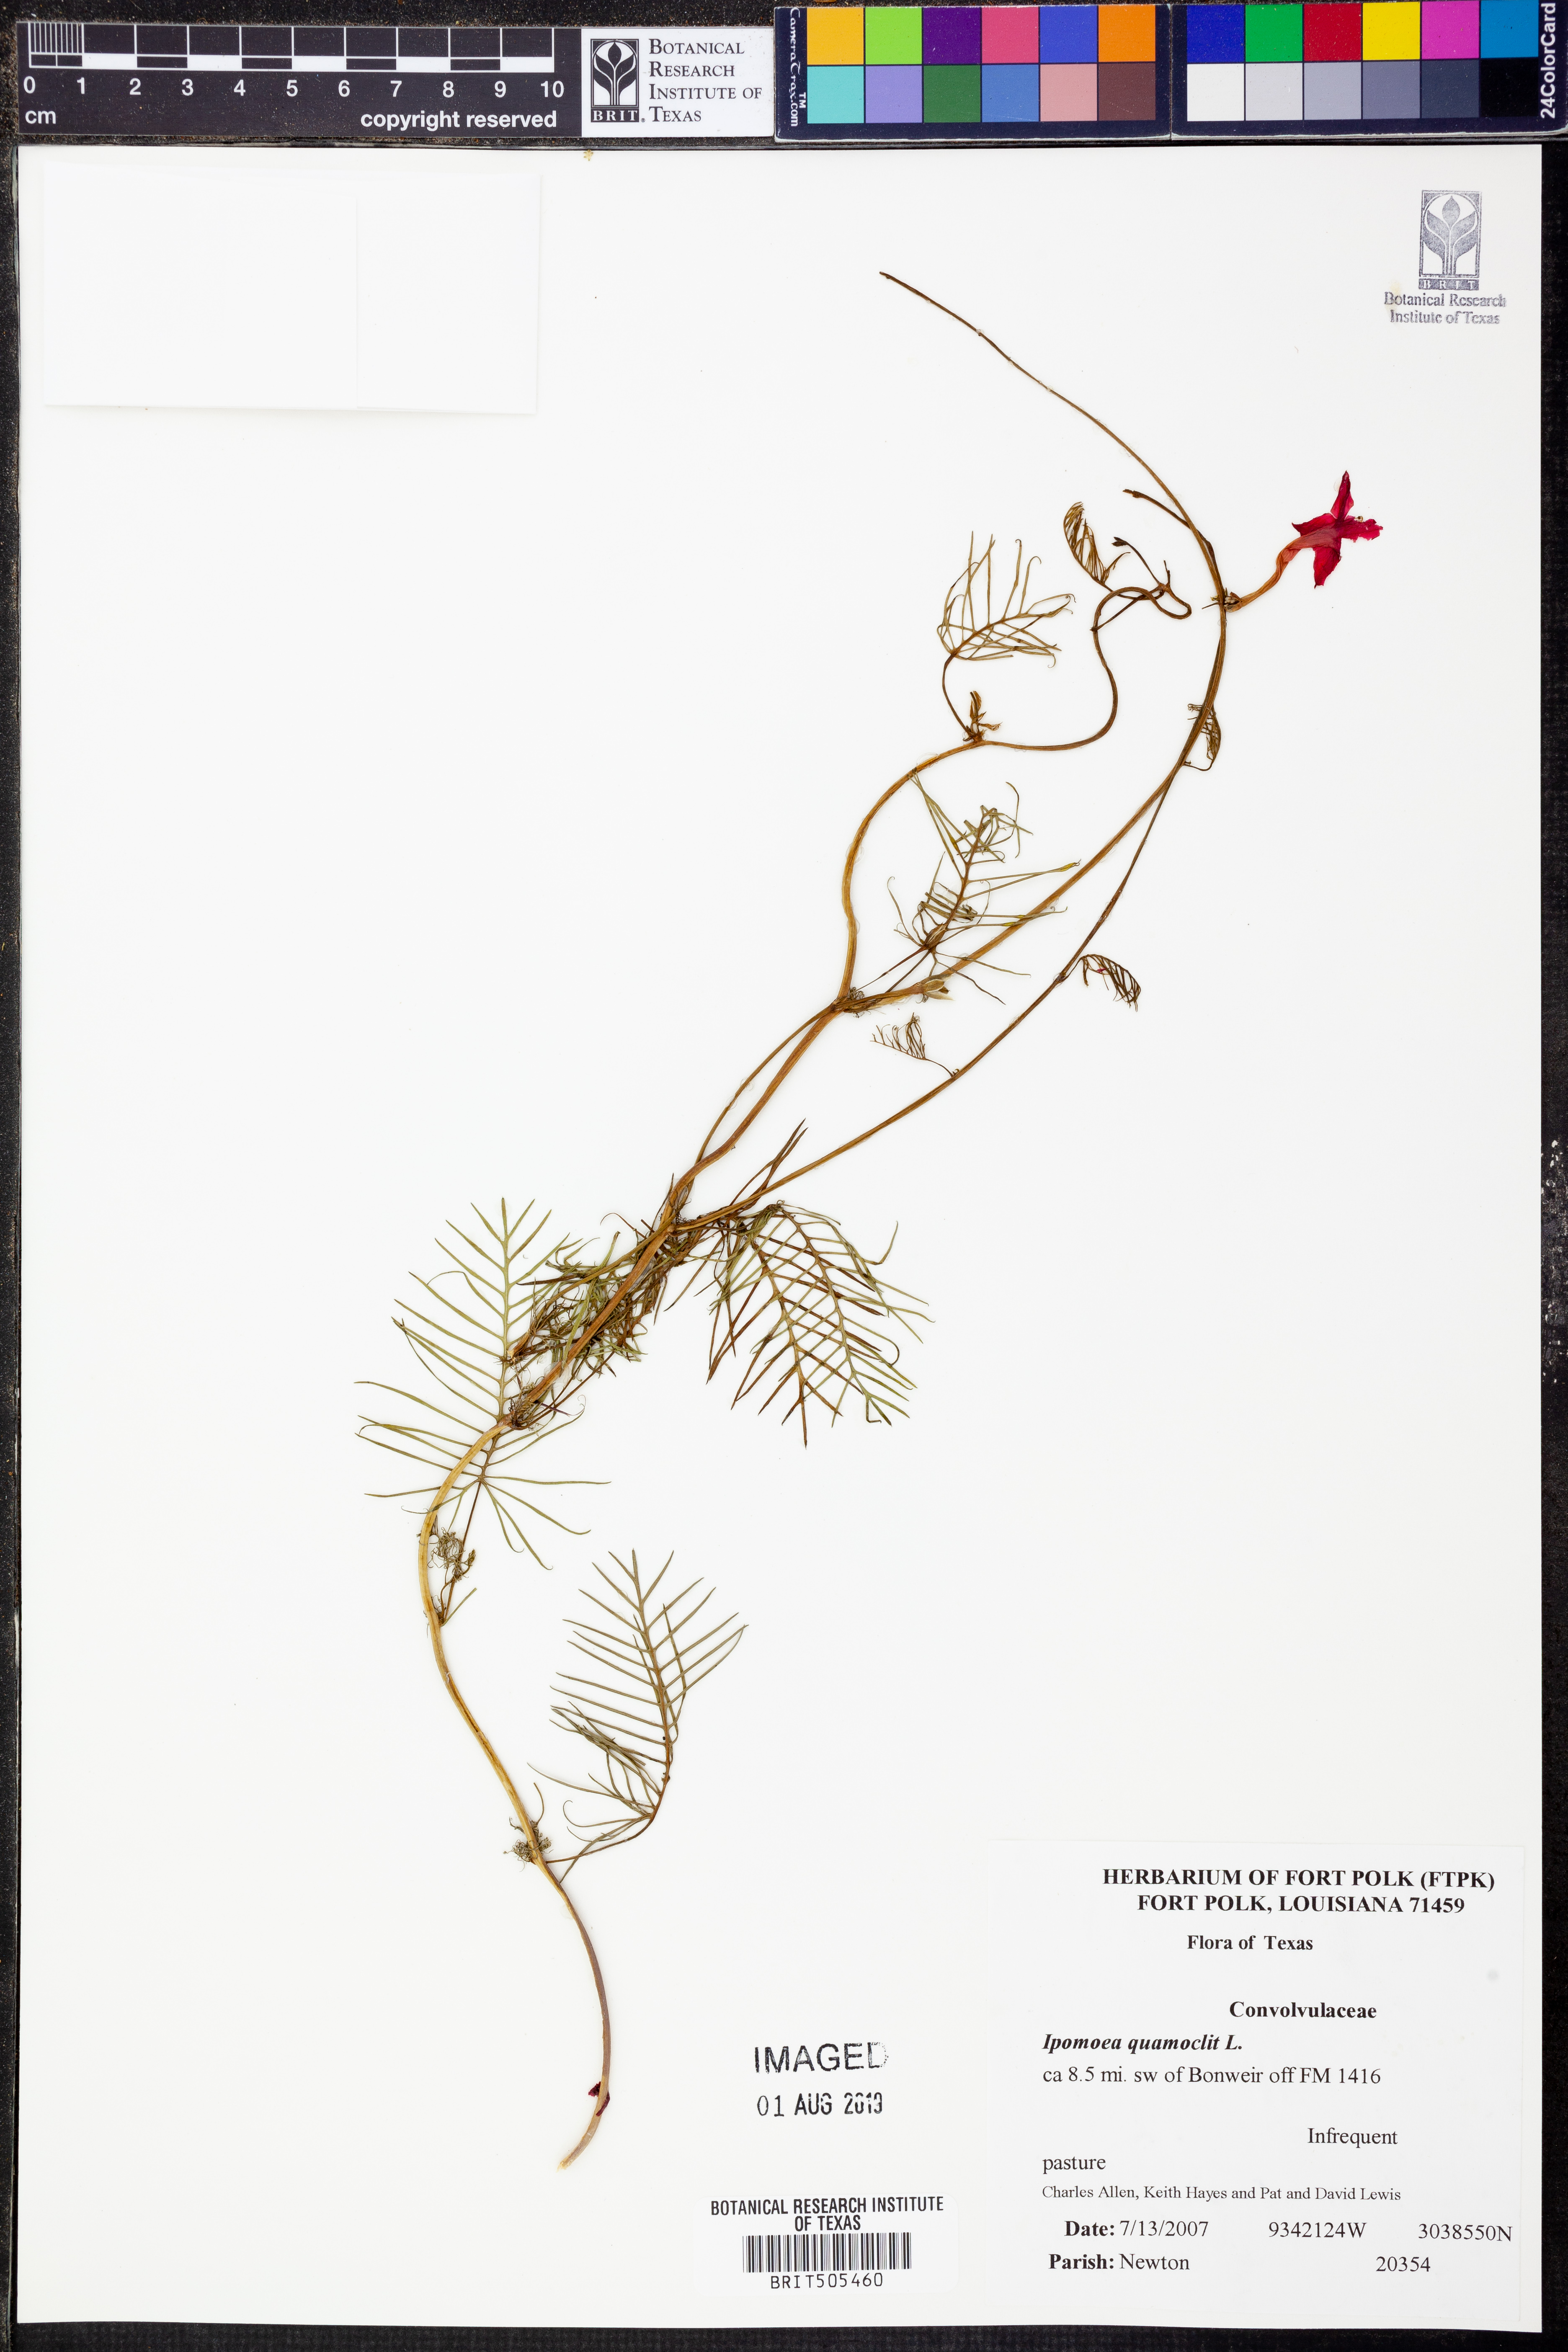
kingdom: Plantae
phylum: Tracheophyta
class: Magnoliopsida
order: Solanales
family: Convolvulaceae
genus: Ipomoea
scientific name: Ipomoea quamoclit
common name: Cypress vine
